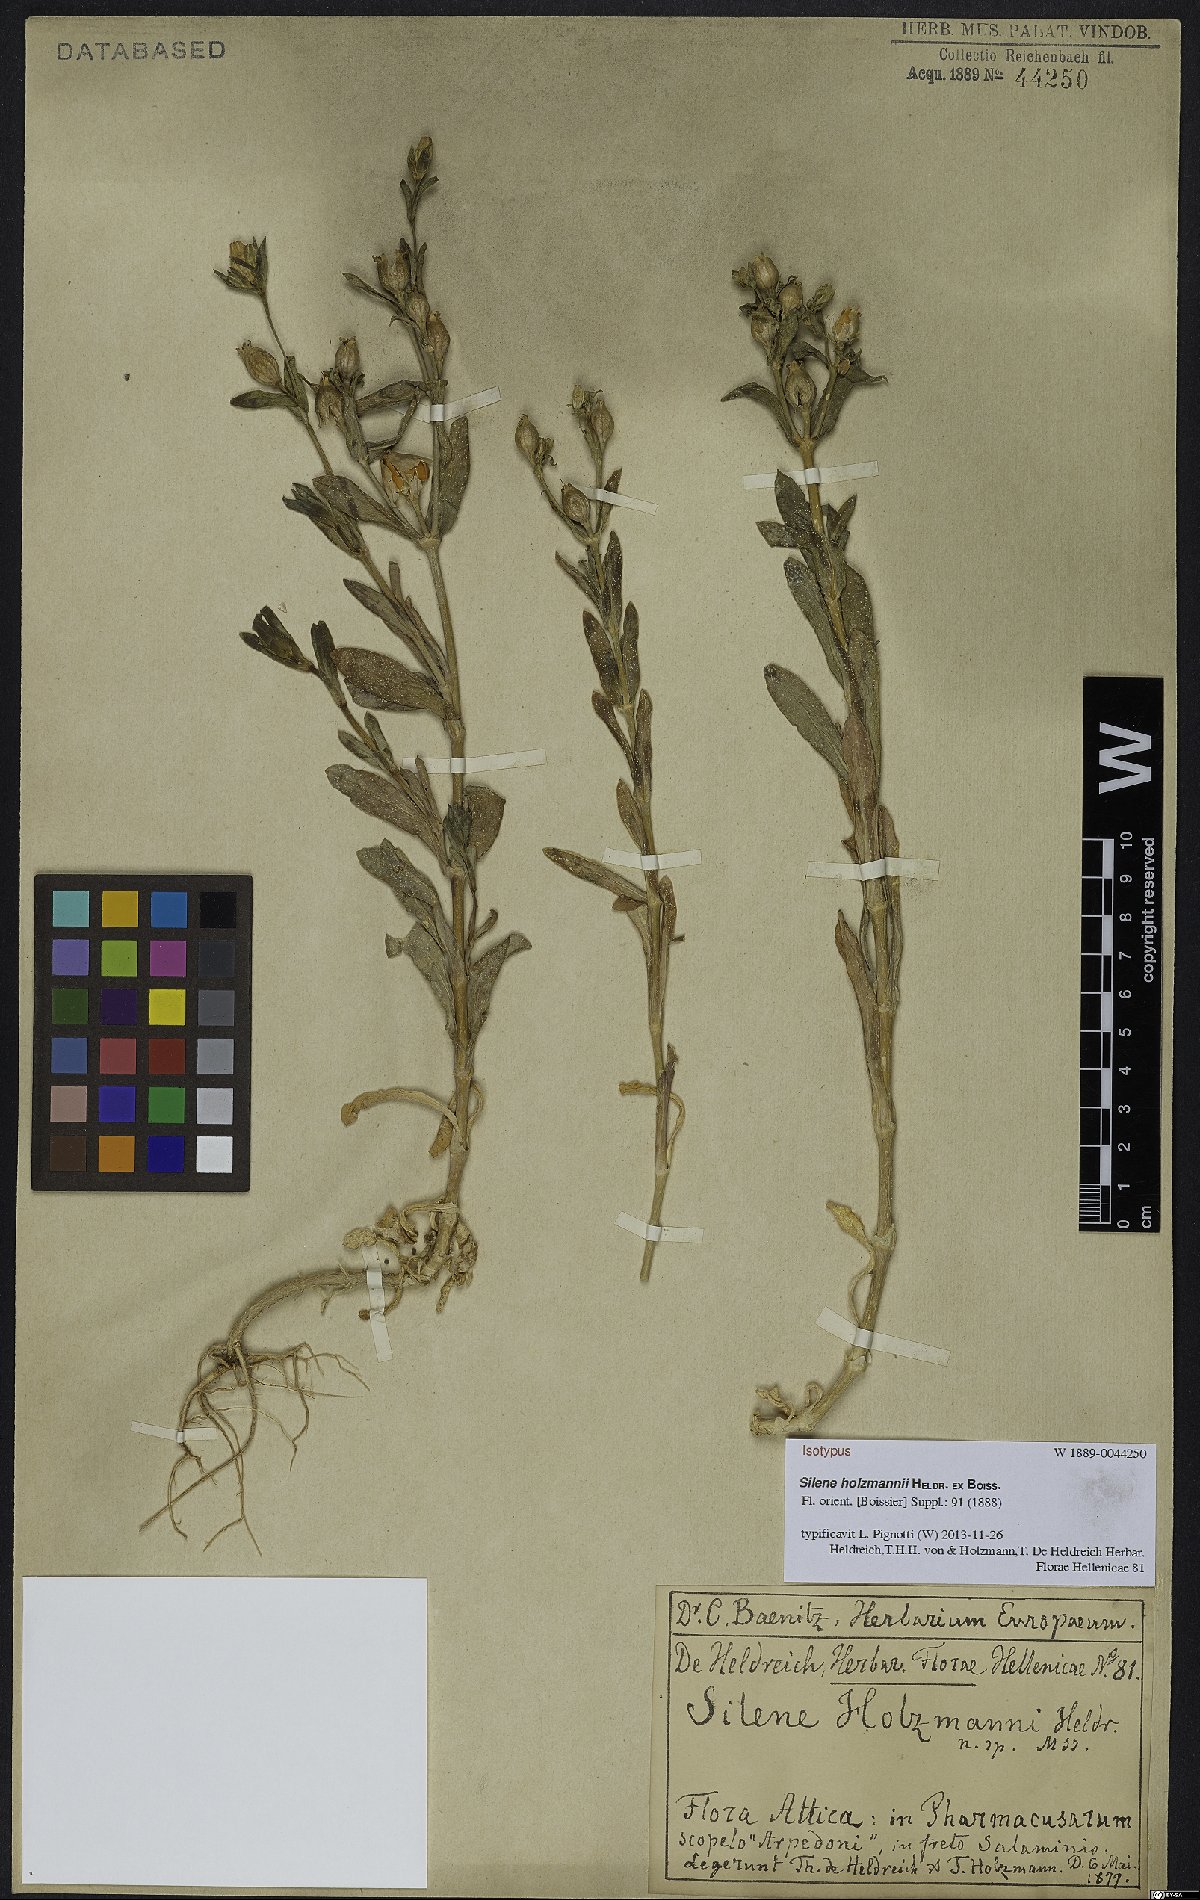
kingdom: Plantae
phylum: Tracheophyta
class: Magnoliopsida
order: Caryophyllales
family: Caryophyllaceae
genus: Silene
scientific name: Silene holzmannii
